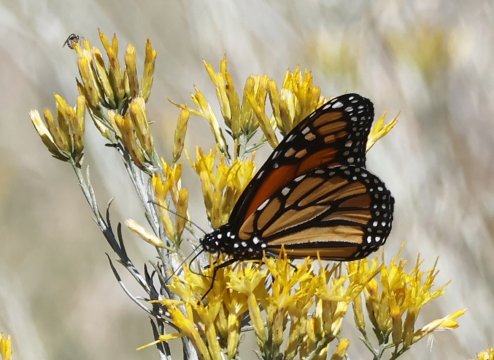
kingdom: Animalia
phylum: Arthropoda
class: Insecta
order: Lepidoptera
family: Nymphalidae
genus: Danaus
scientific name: Danaus plexippus
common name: Monarch
